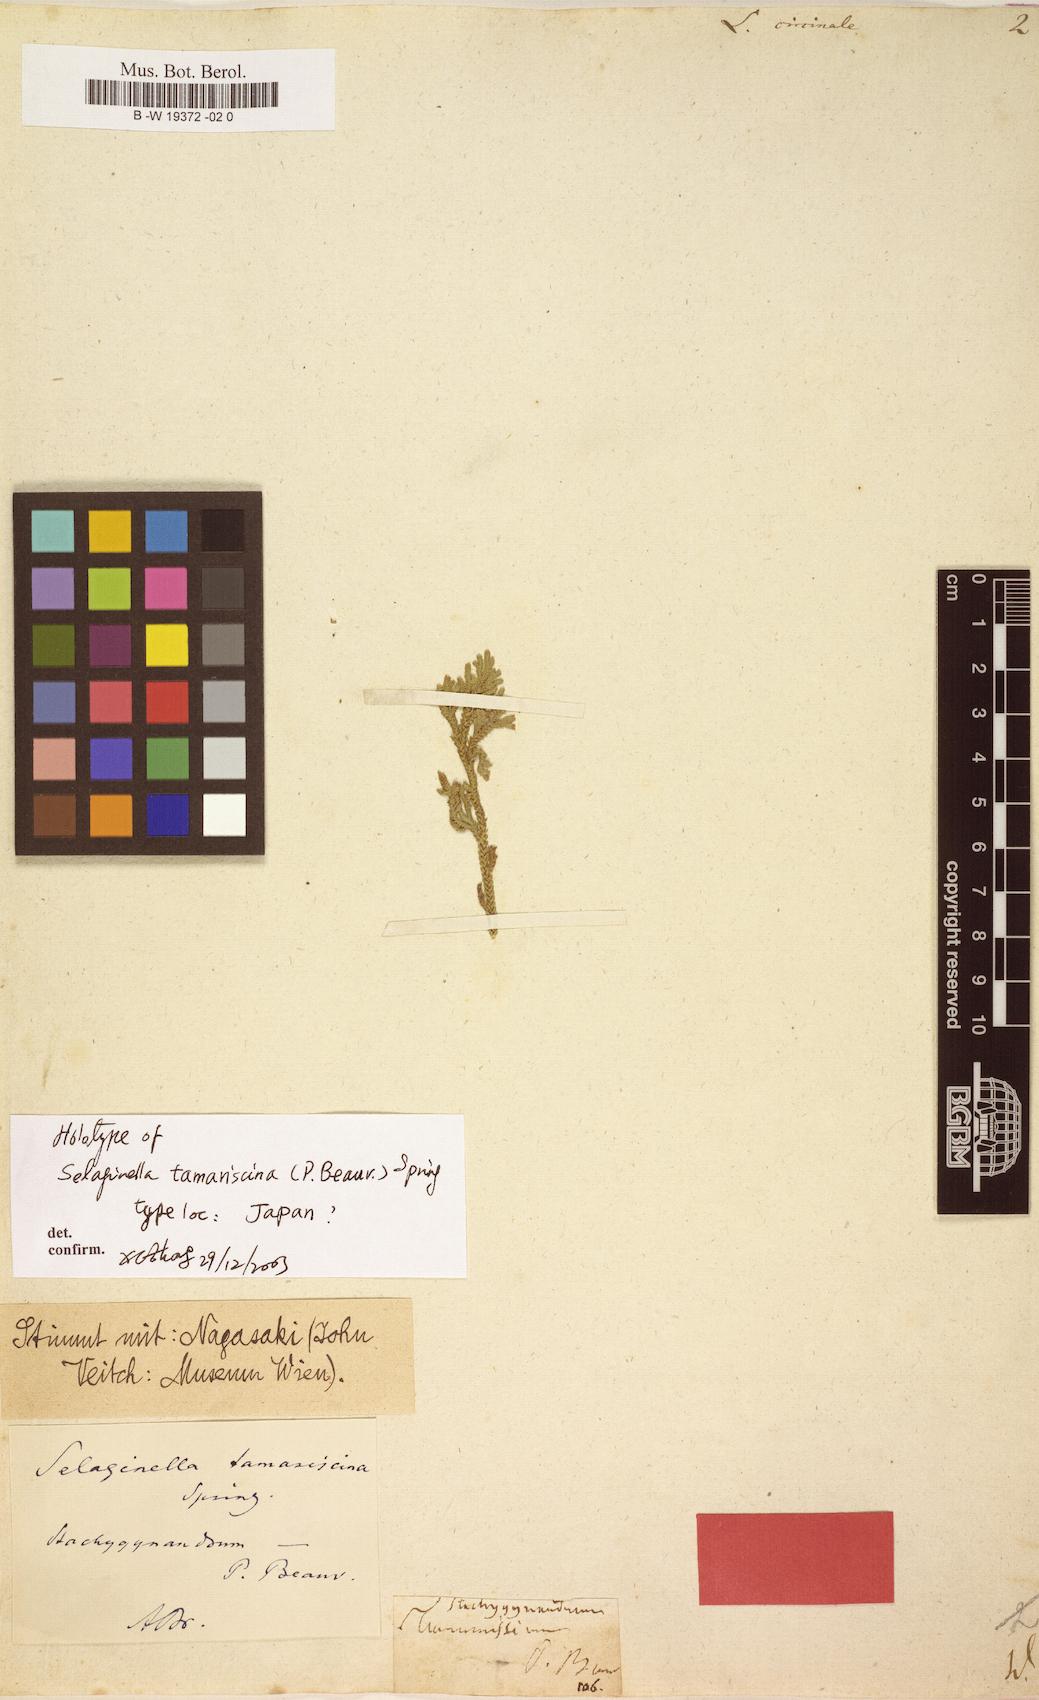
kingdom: Plantae
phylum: Tracheophyta
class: Lycopodiopsida
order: Selaginellales
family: Selaginellaceae
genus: Selaginella
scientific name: Selaginella bryopteris
